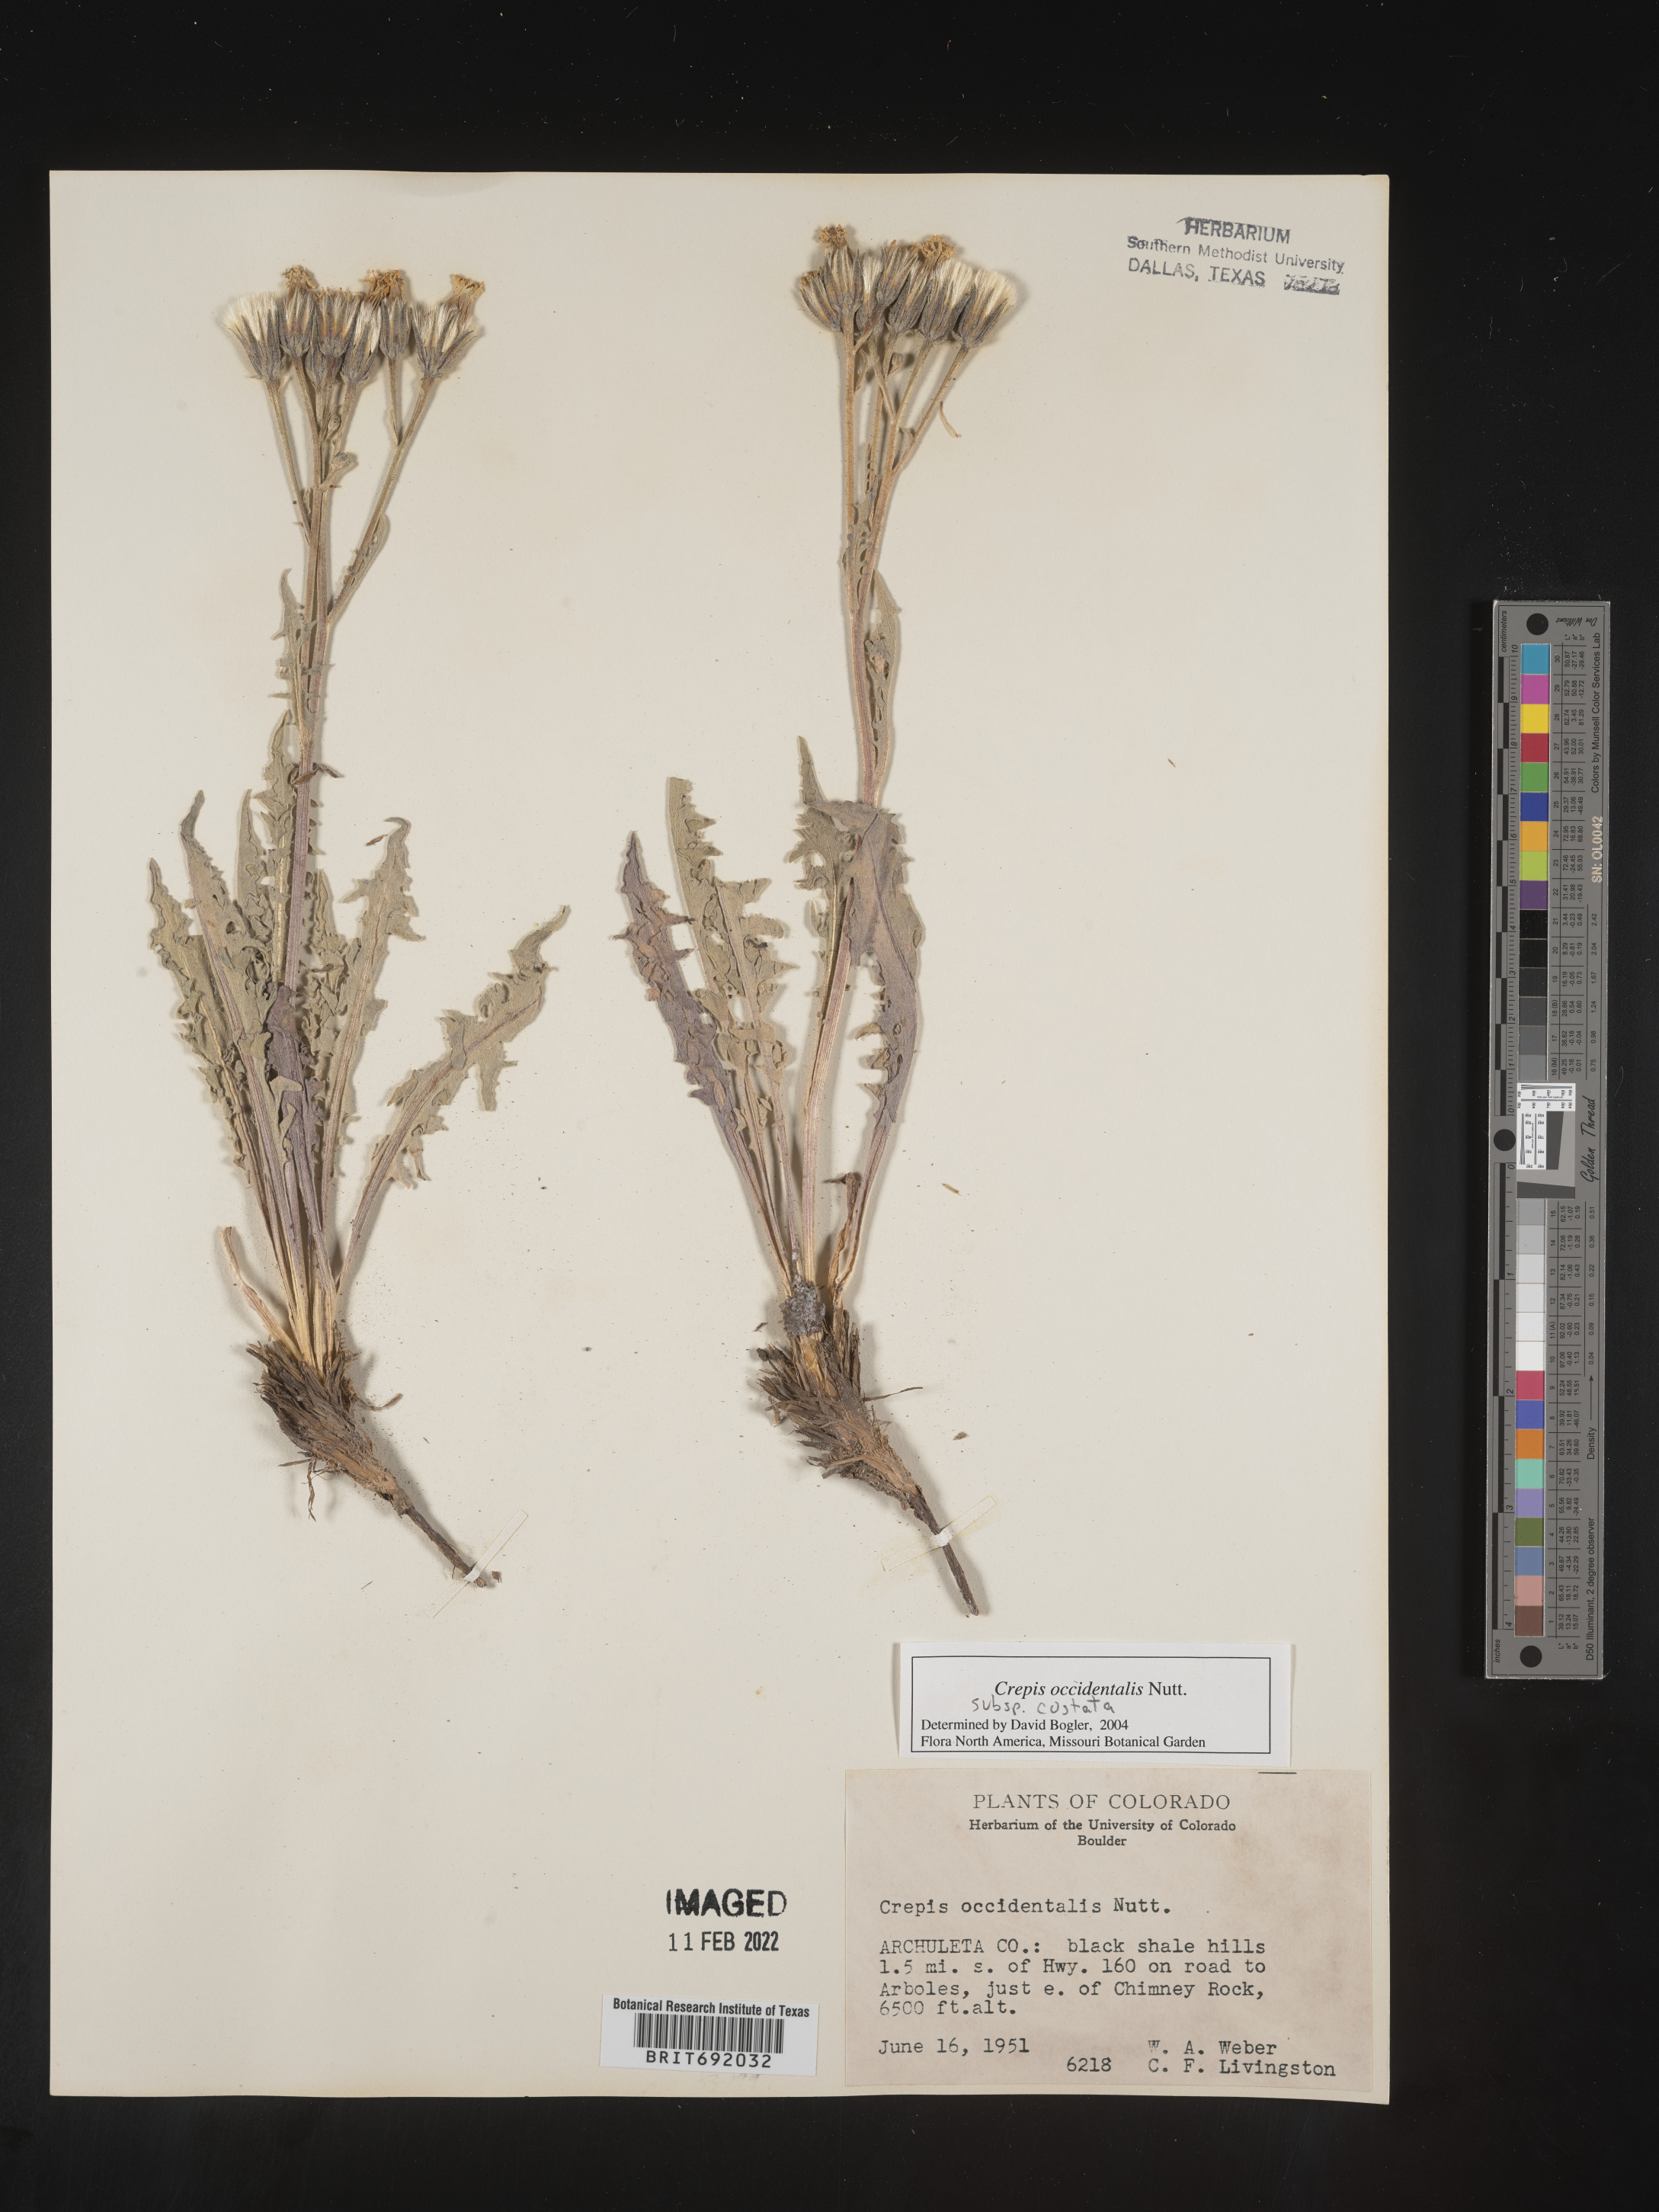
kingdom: Plantae
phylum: Tracheophyta
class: Magnoliopsida
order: Asterales
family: Asteraceae
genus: Crepis
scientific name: Crepis occidentalis
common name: Gray hawk's-beard
